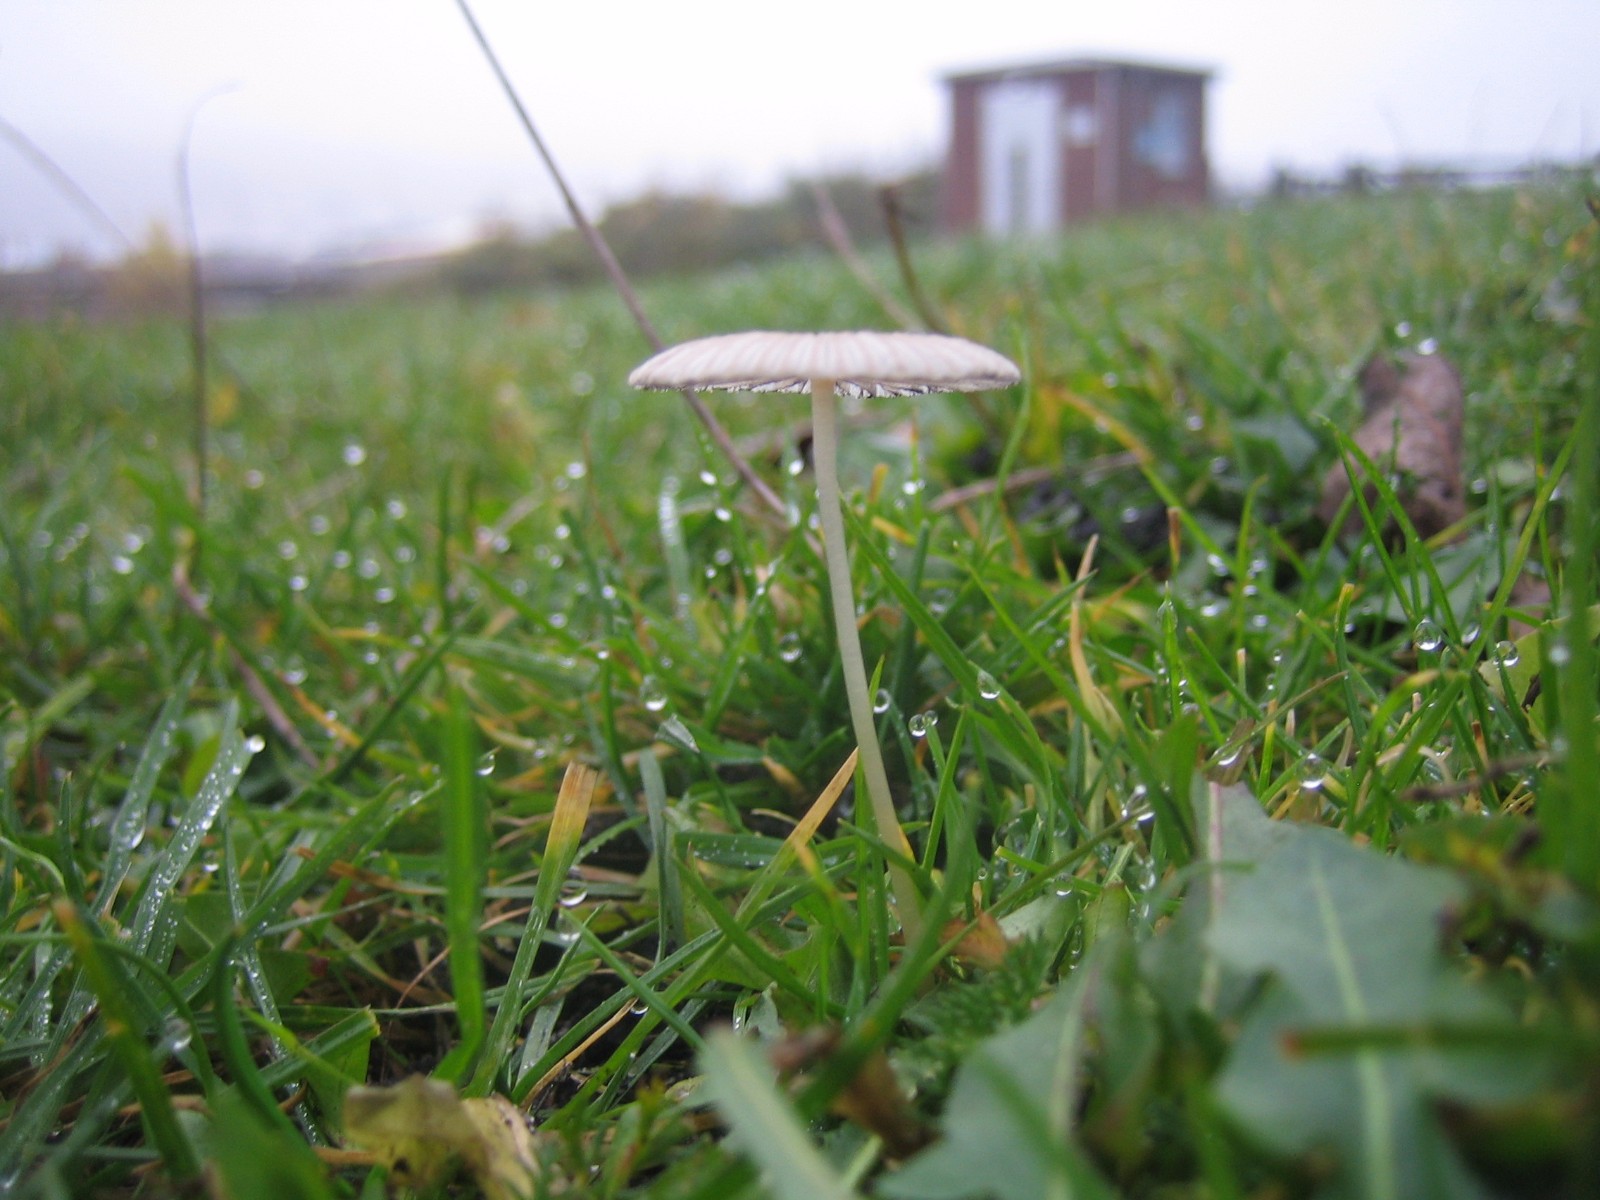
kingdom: Fungi
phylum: Basidiomycota
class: Agaricomycetes
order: Agaricales
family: Psathyrellaceae
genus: Parasola
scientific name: Parasola
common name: hjulhat
